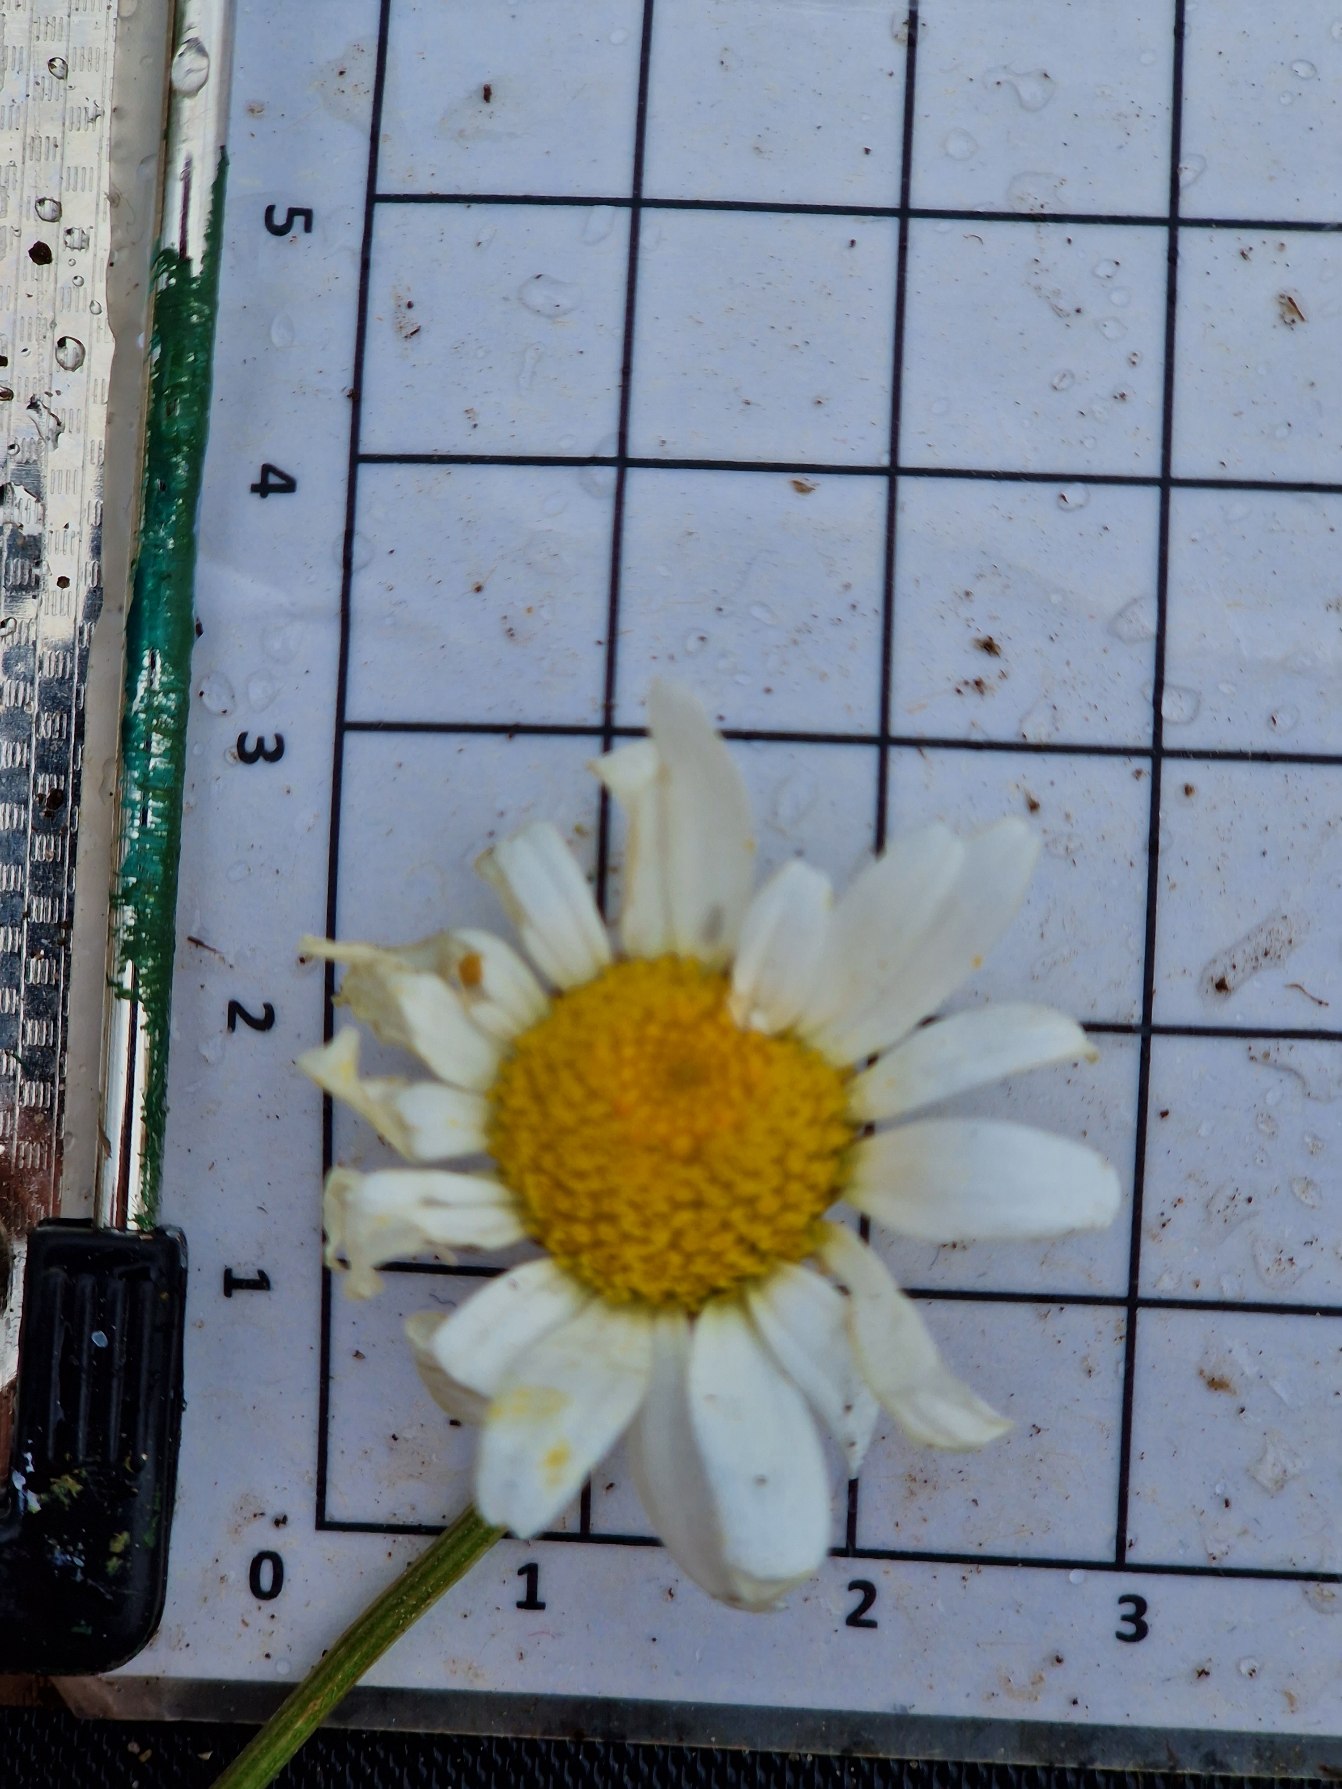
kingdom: Plantae
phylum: Tracheophyta
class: Magnoliopsida
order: Asterales
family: Asteraceae
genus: Leucanthemum
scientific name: Leucanthemum vulgare
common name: Hvid okseøje
